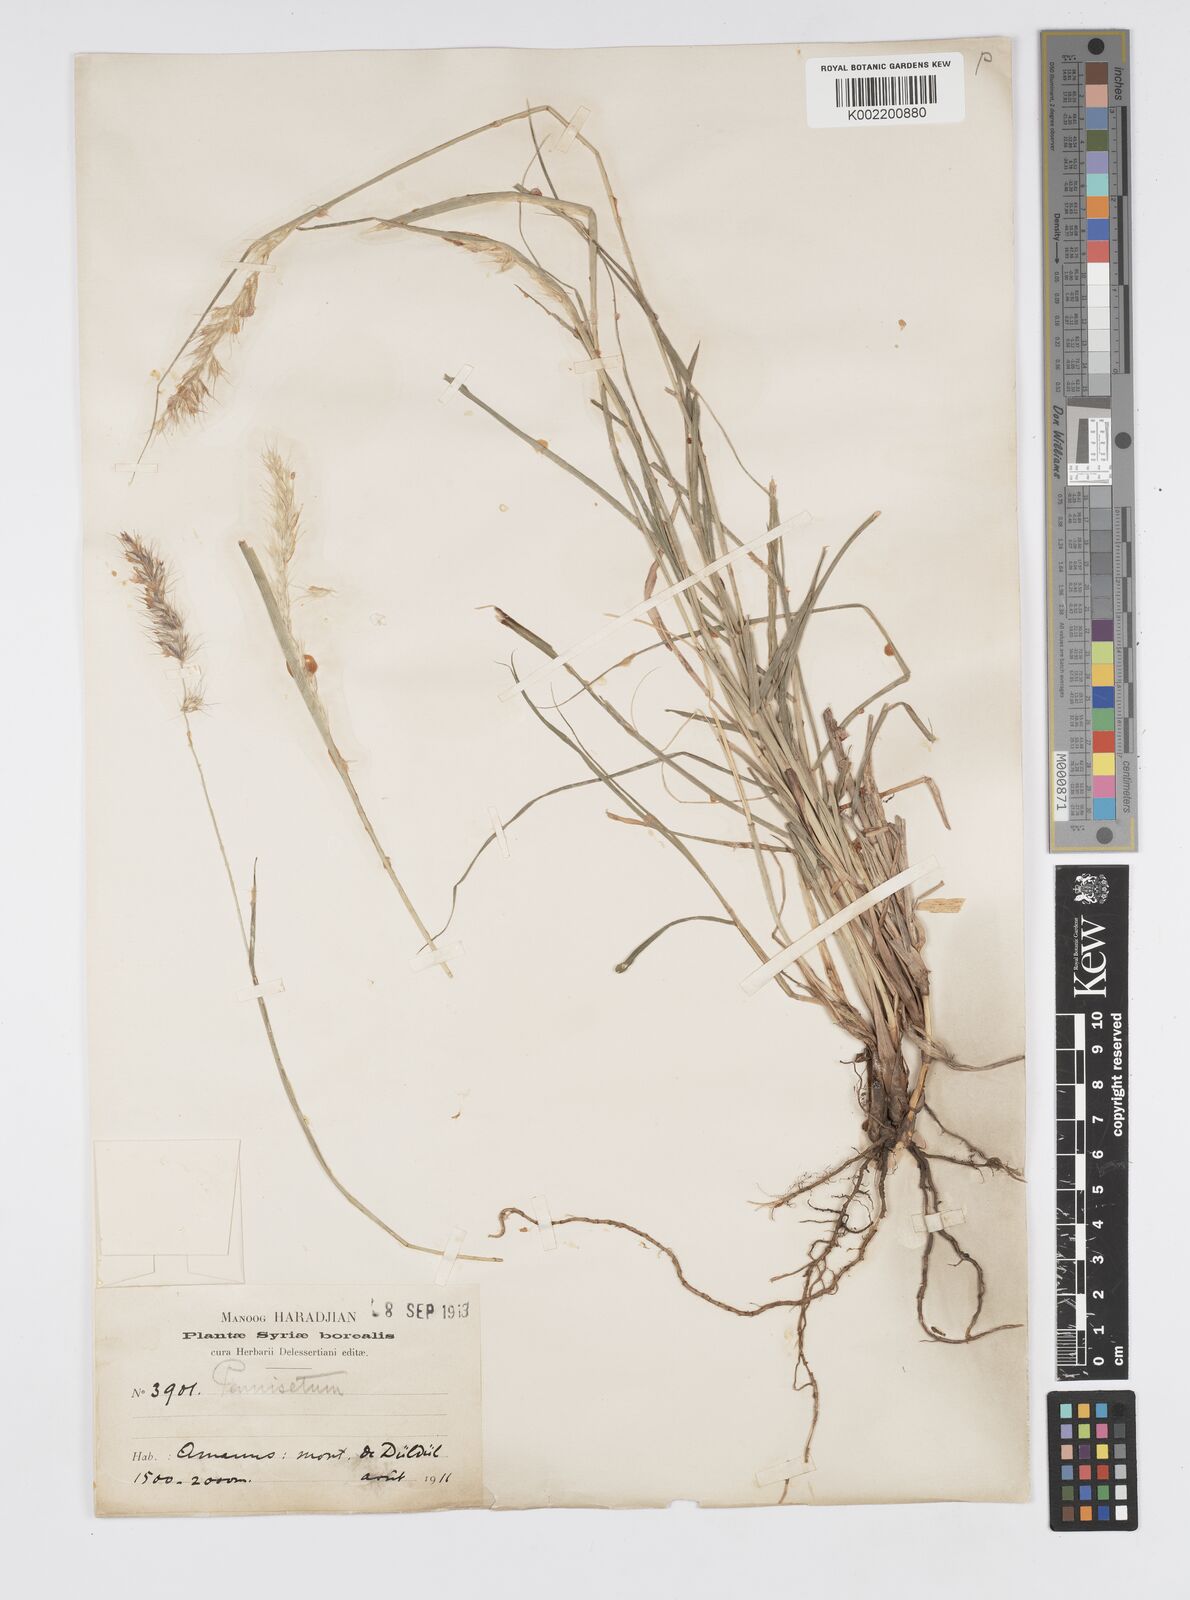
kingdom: Plantae
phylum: Tracheophyta
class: Liliopsida
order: Poales
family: Poaceae
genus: Cenchrus
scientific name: Cenchrus orientalis
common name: Oriental fountain grass
